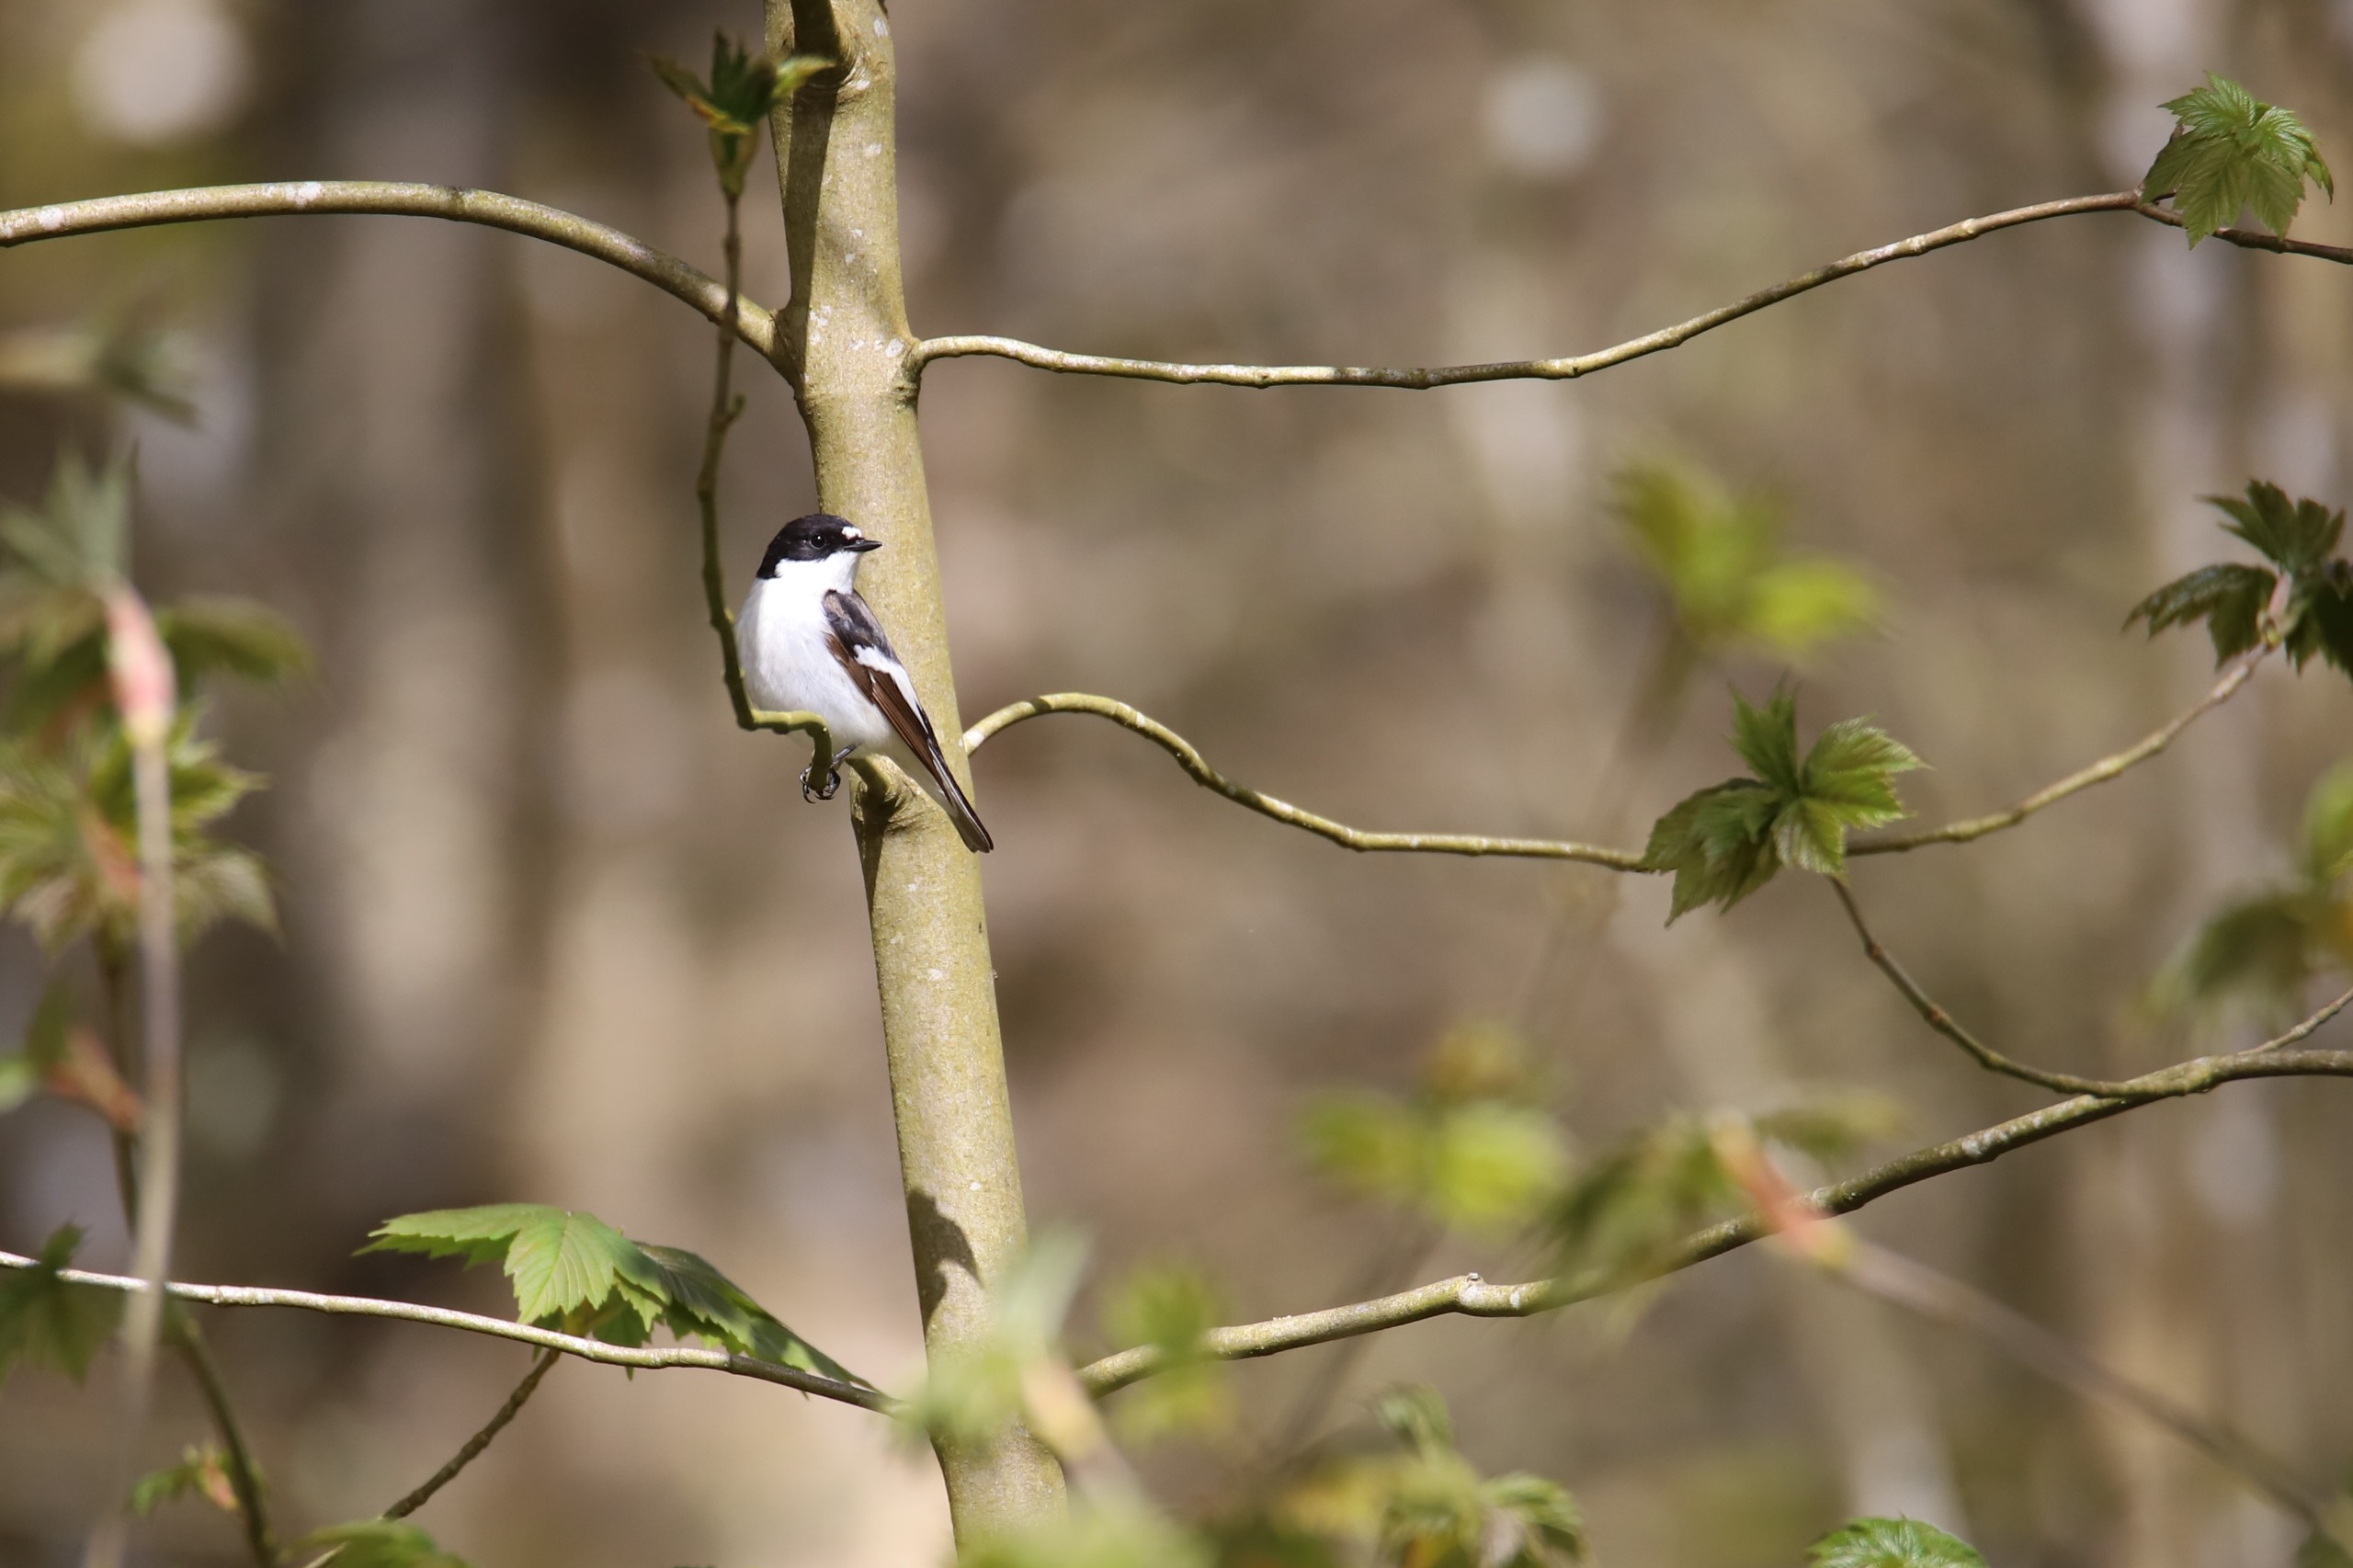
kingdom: Animalia
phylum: Chordata
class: Aves
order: Passeriformes
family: Muscicapidae
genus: Ficedula
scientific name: Ficedula hypoleuca
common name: Broget fluesnapper
